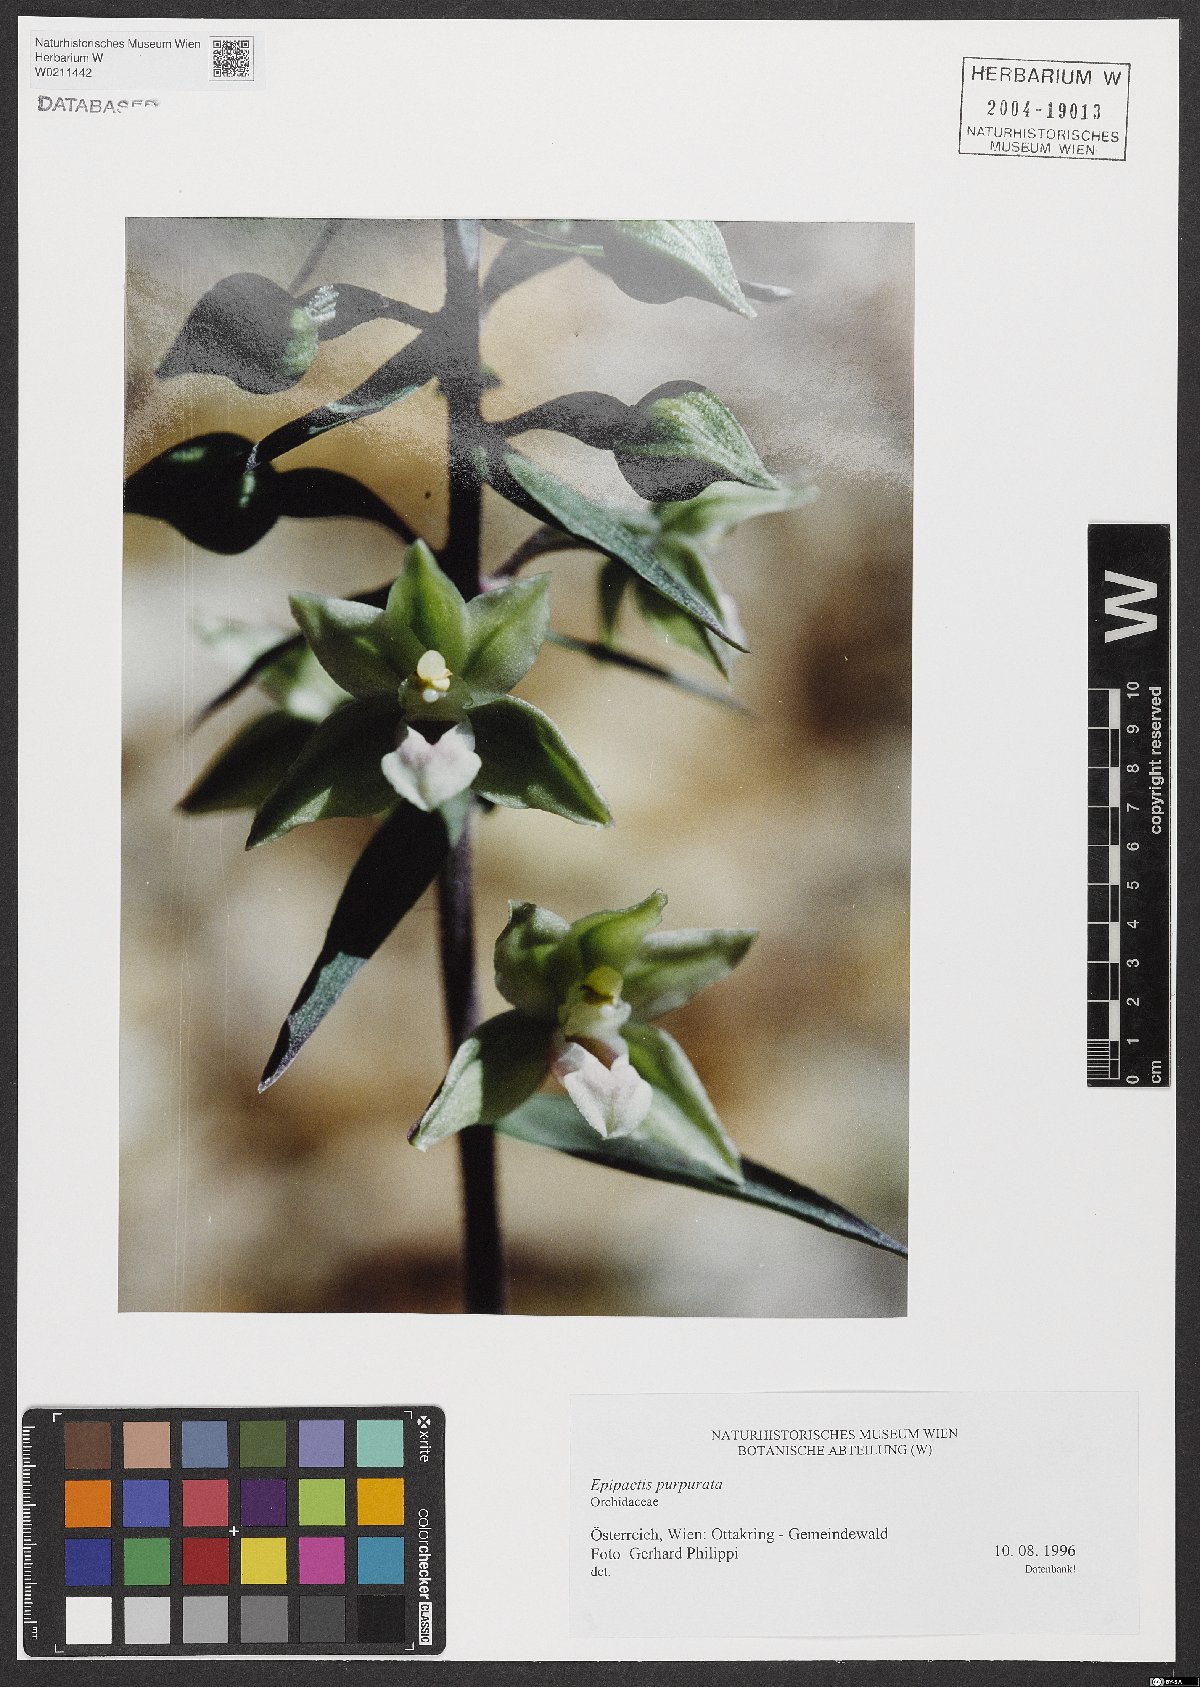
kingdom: Plantae
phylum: Tracheophyta
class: Liliopsida
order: Asparagales
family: Orchidaceae
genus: Epipactis
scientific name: Epipactis purpurata
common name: Violet helleborine
